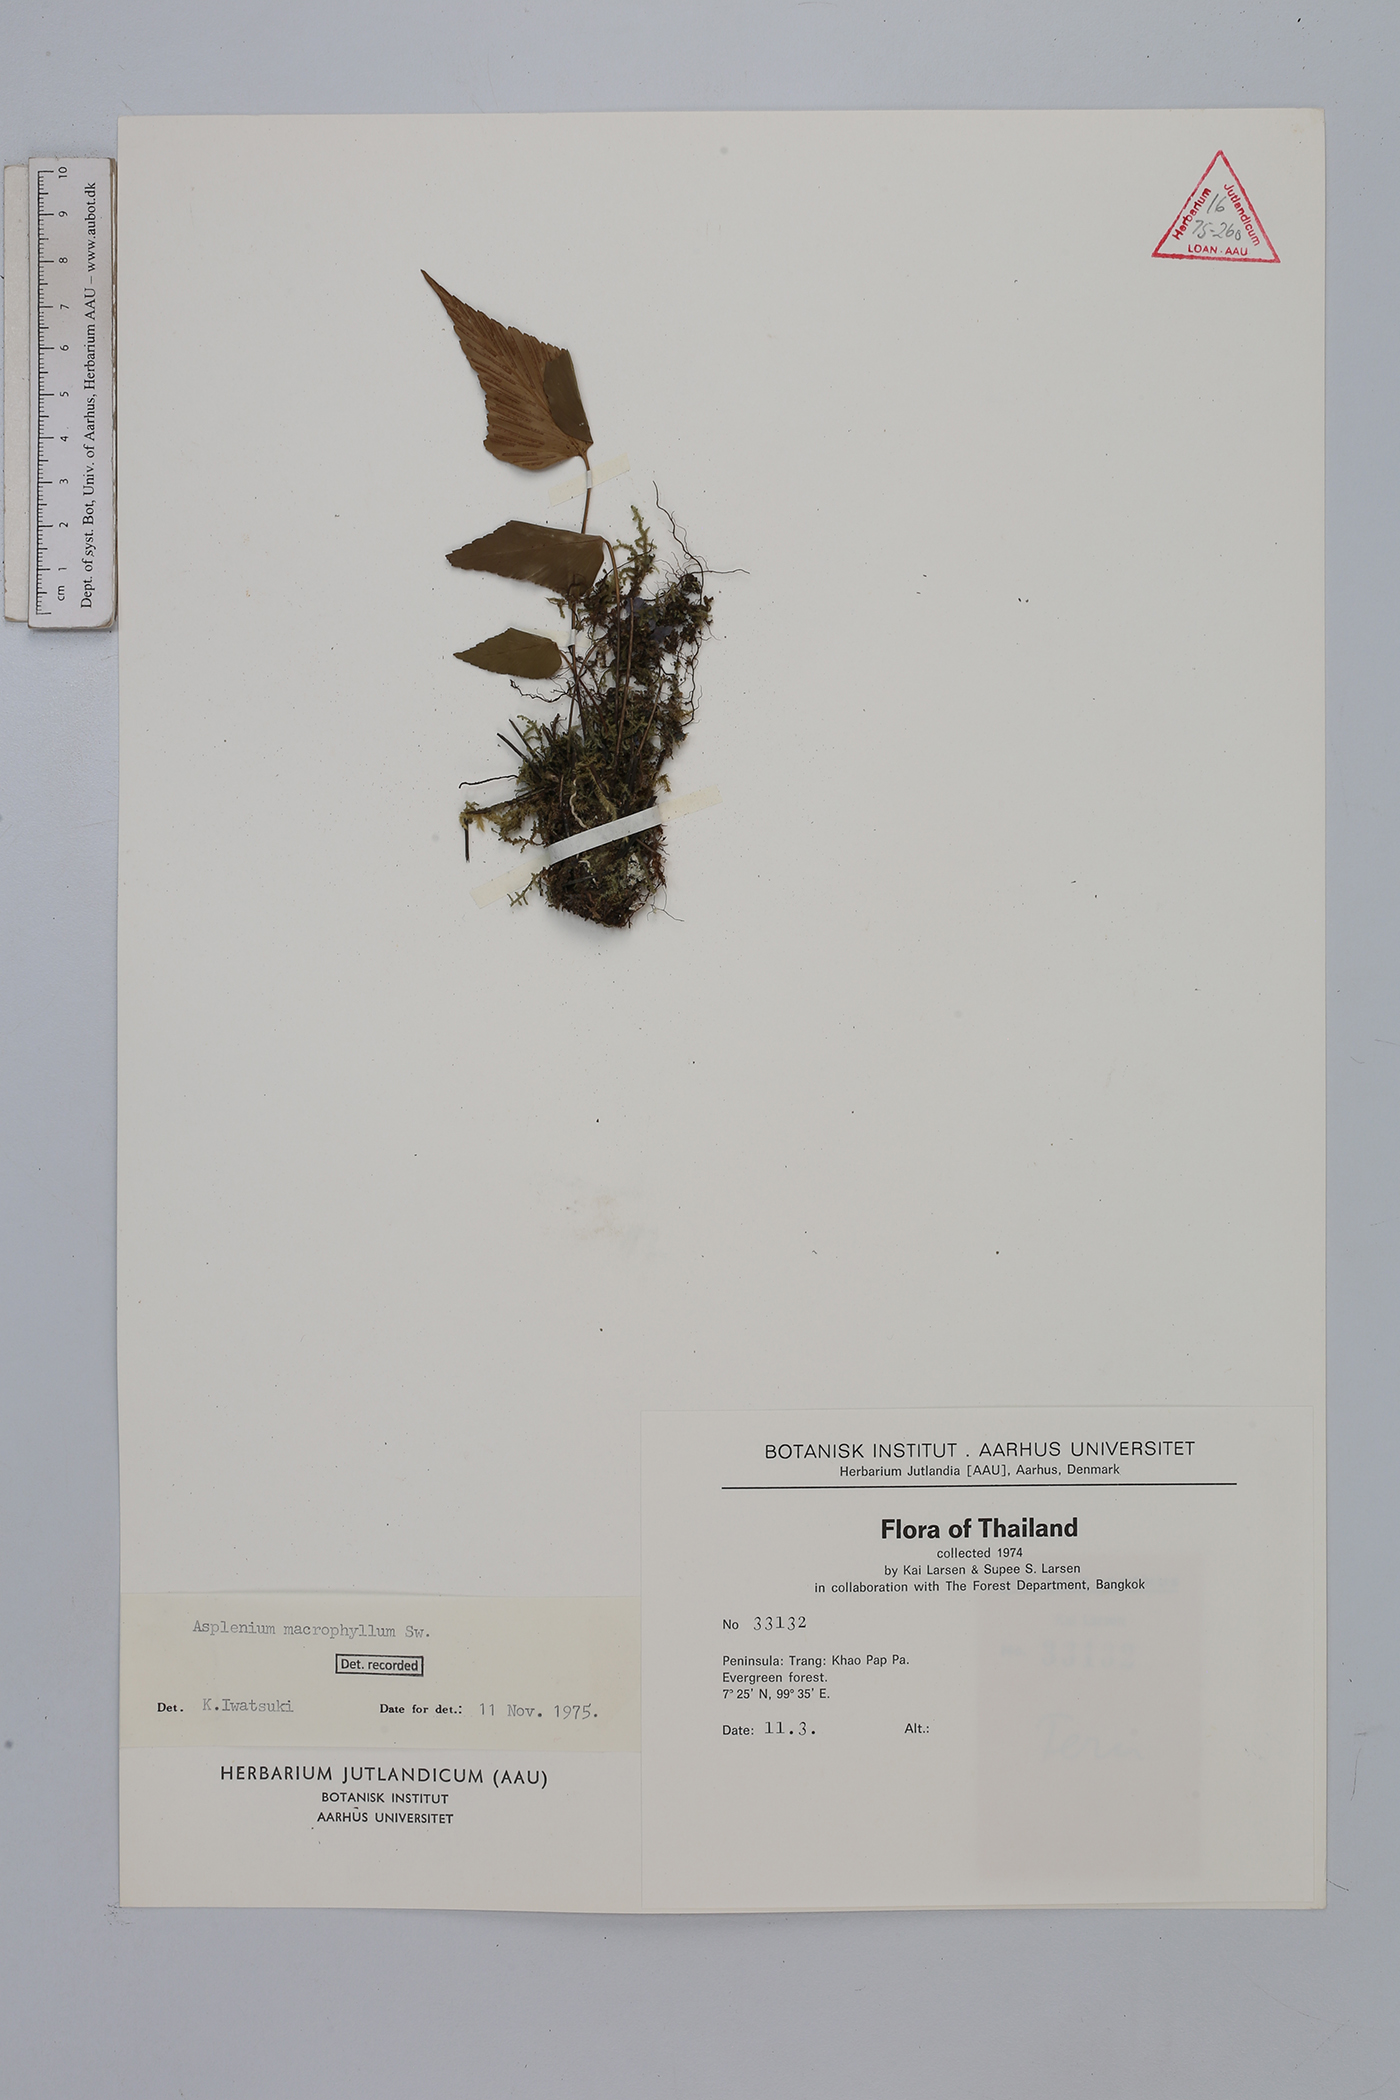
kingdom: Plantae
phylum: Tracheophyta
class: Polypodiopsida
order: Polypodiales
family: Aspleniaceae
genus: Asplenium
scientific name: Asplenium macrophyllum
